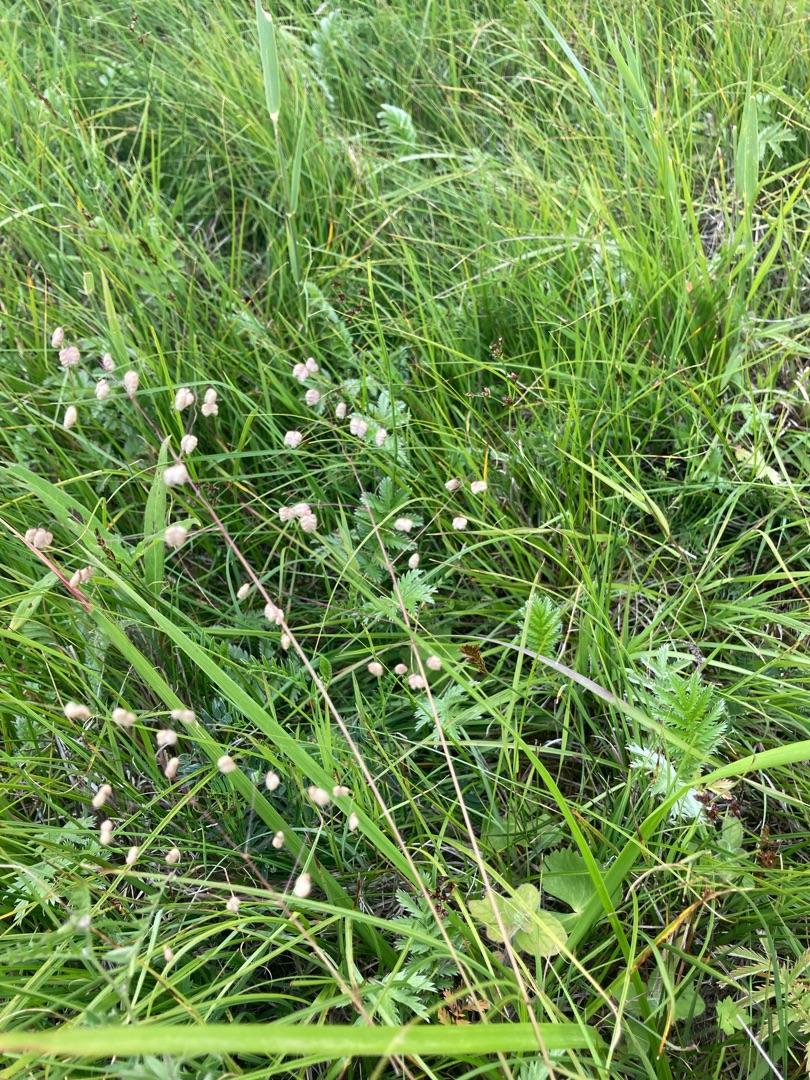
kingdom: Plantae
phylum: Tracheophyta
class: Liliopsida
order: Poales
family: Poaceae
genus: Briza
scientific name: Briza media
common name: Hjertegræs
